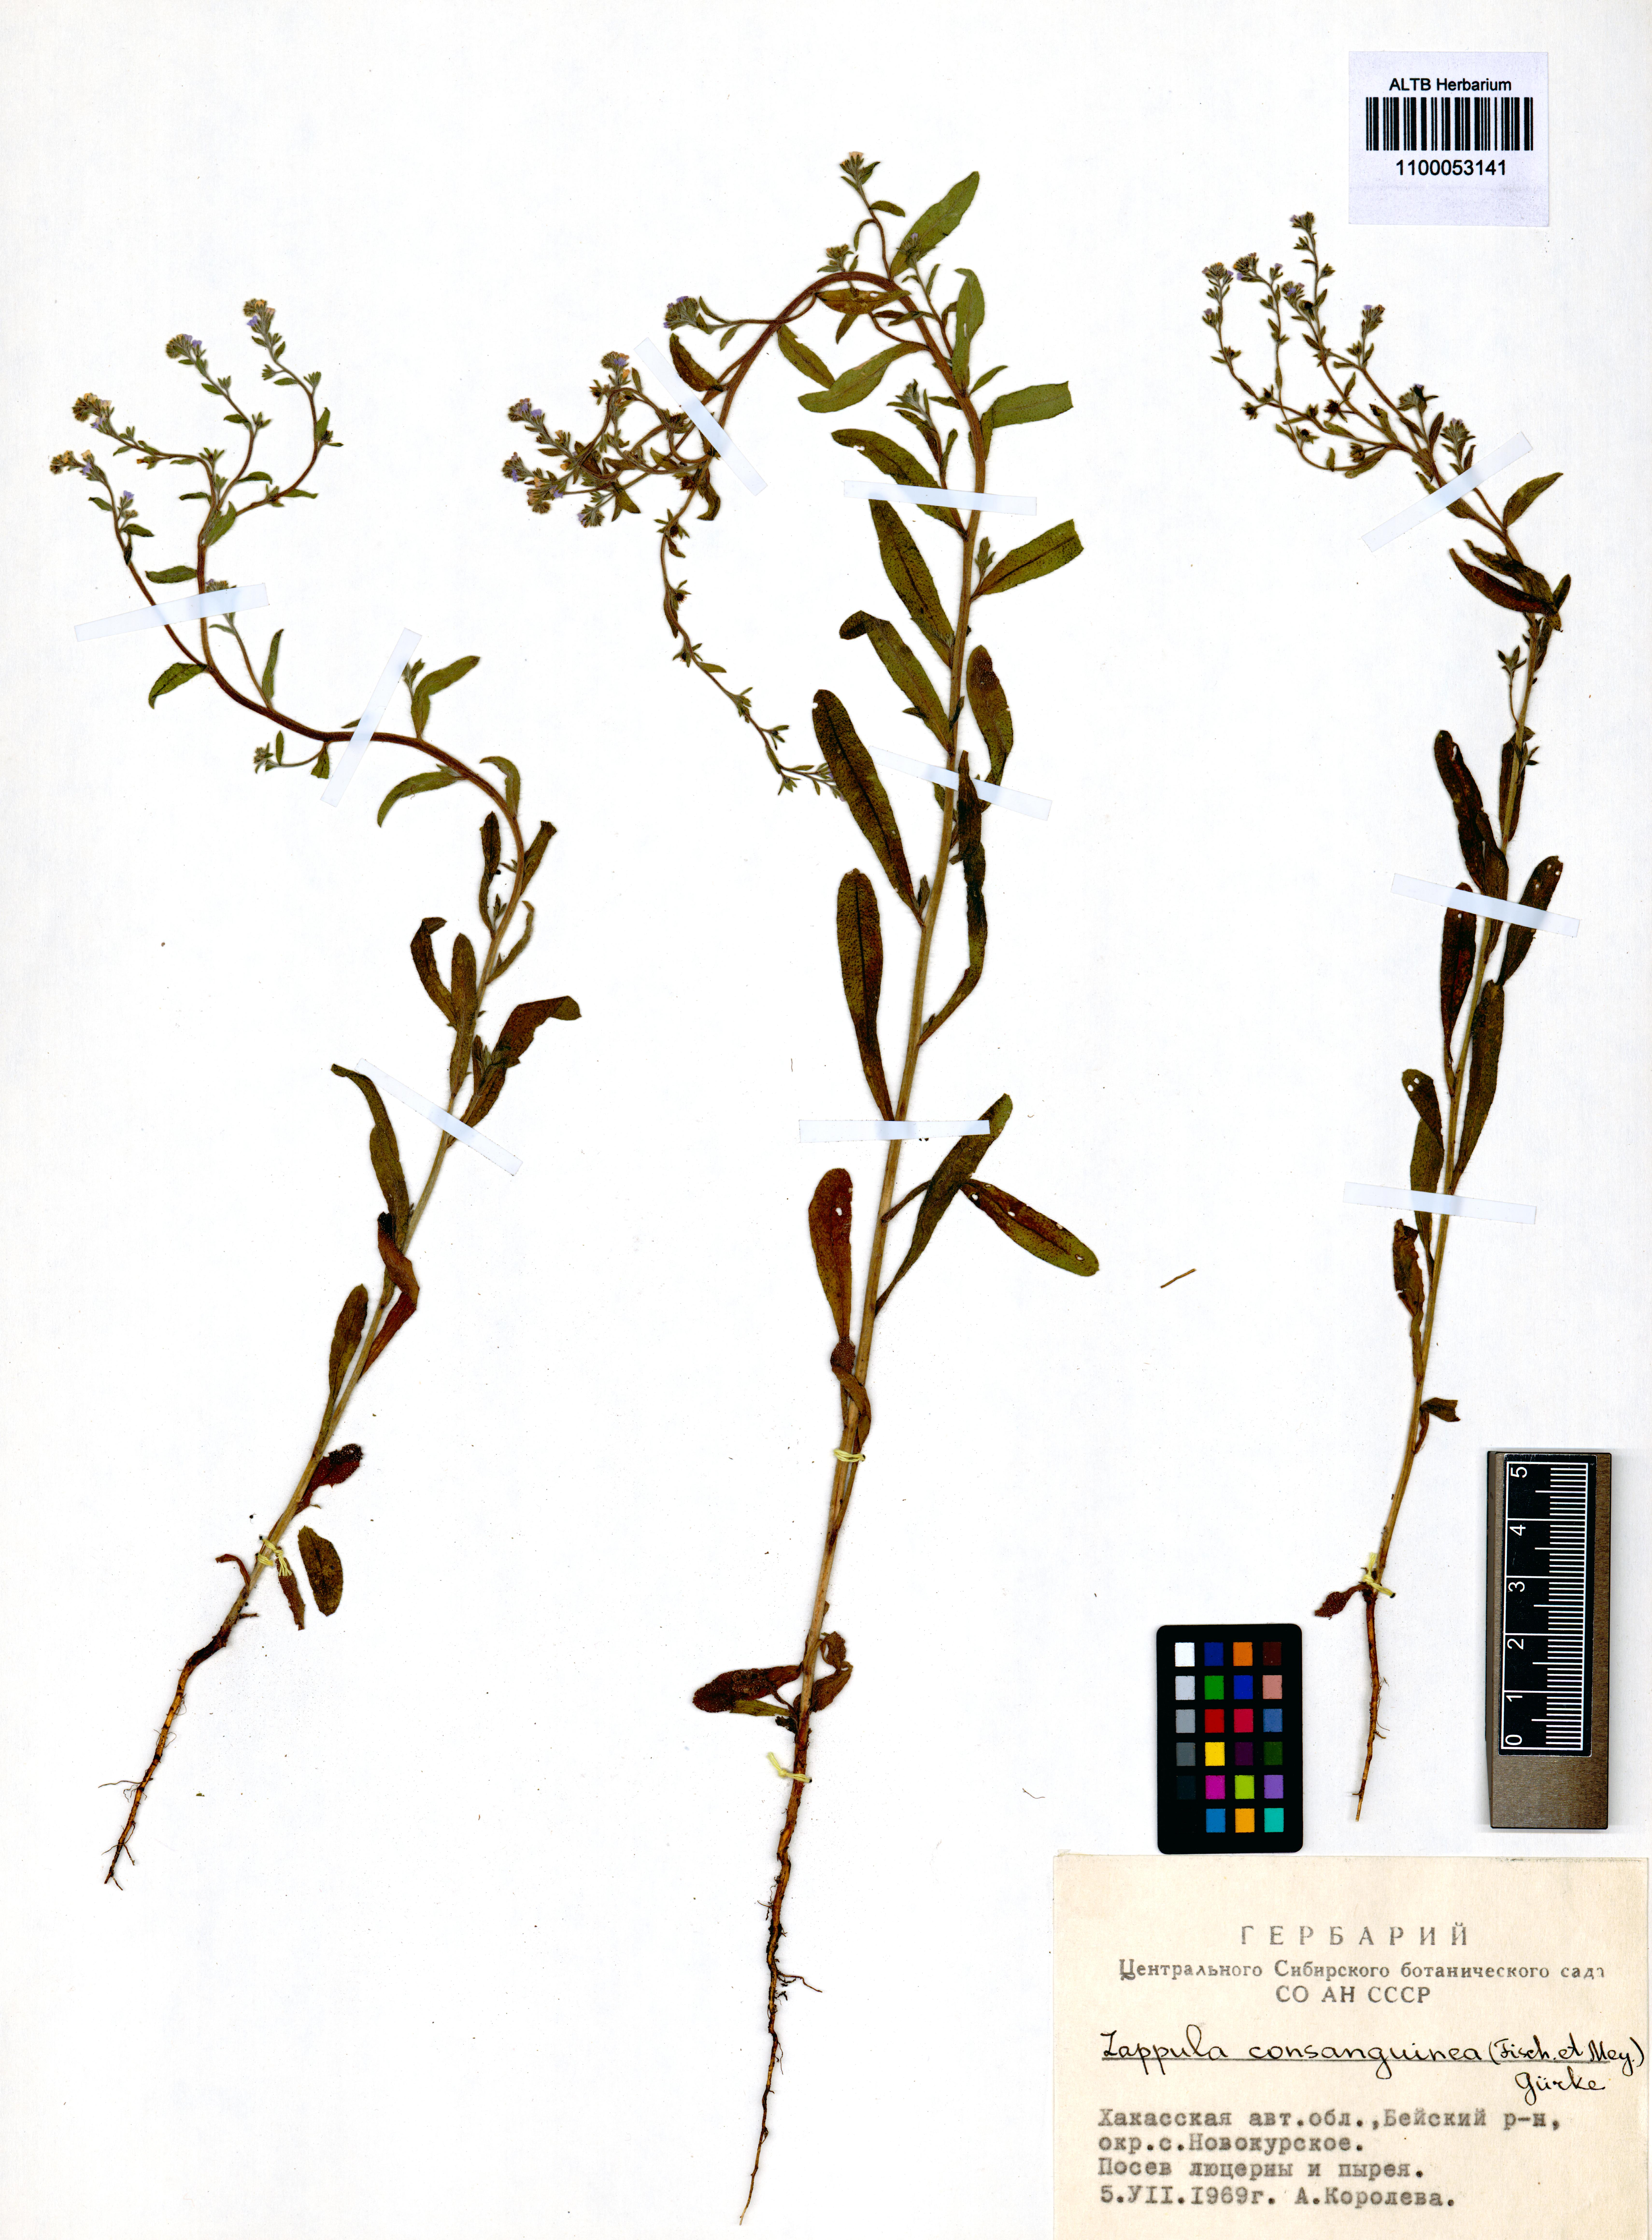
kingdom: Plantae
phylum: Tracheophyta
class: Magnoliopsida
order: Boraginales
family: Boraginaceae
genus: Lappula
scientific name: Lappula squarrosa
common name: European stickseed
